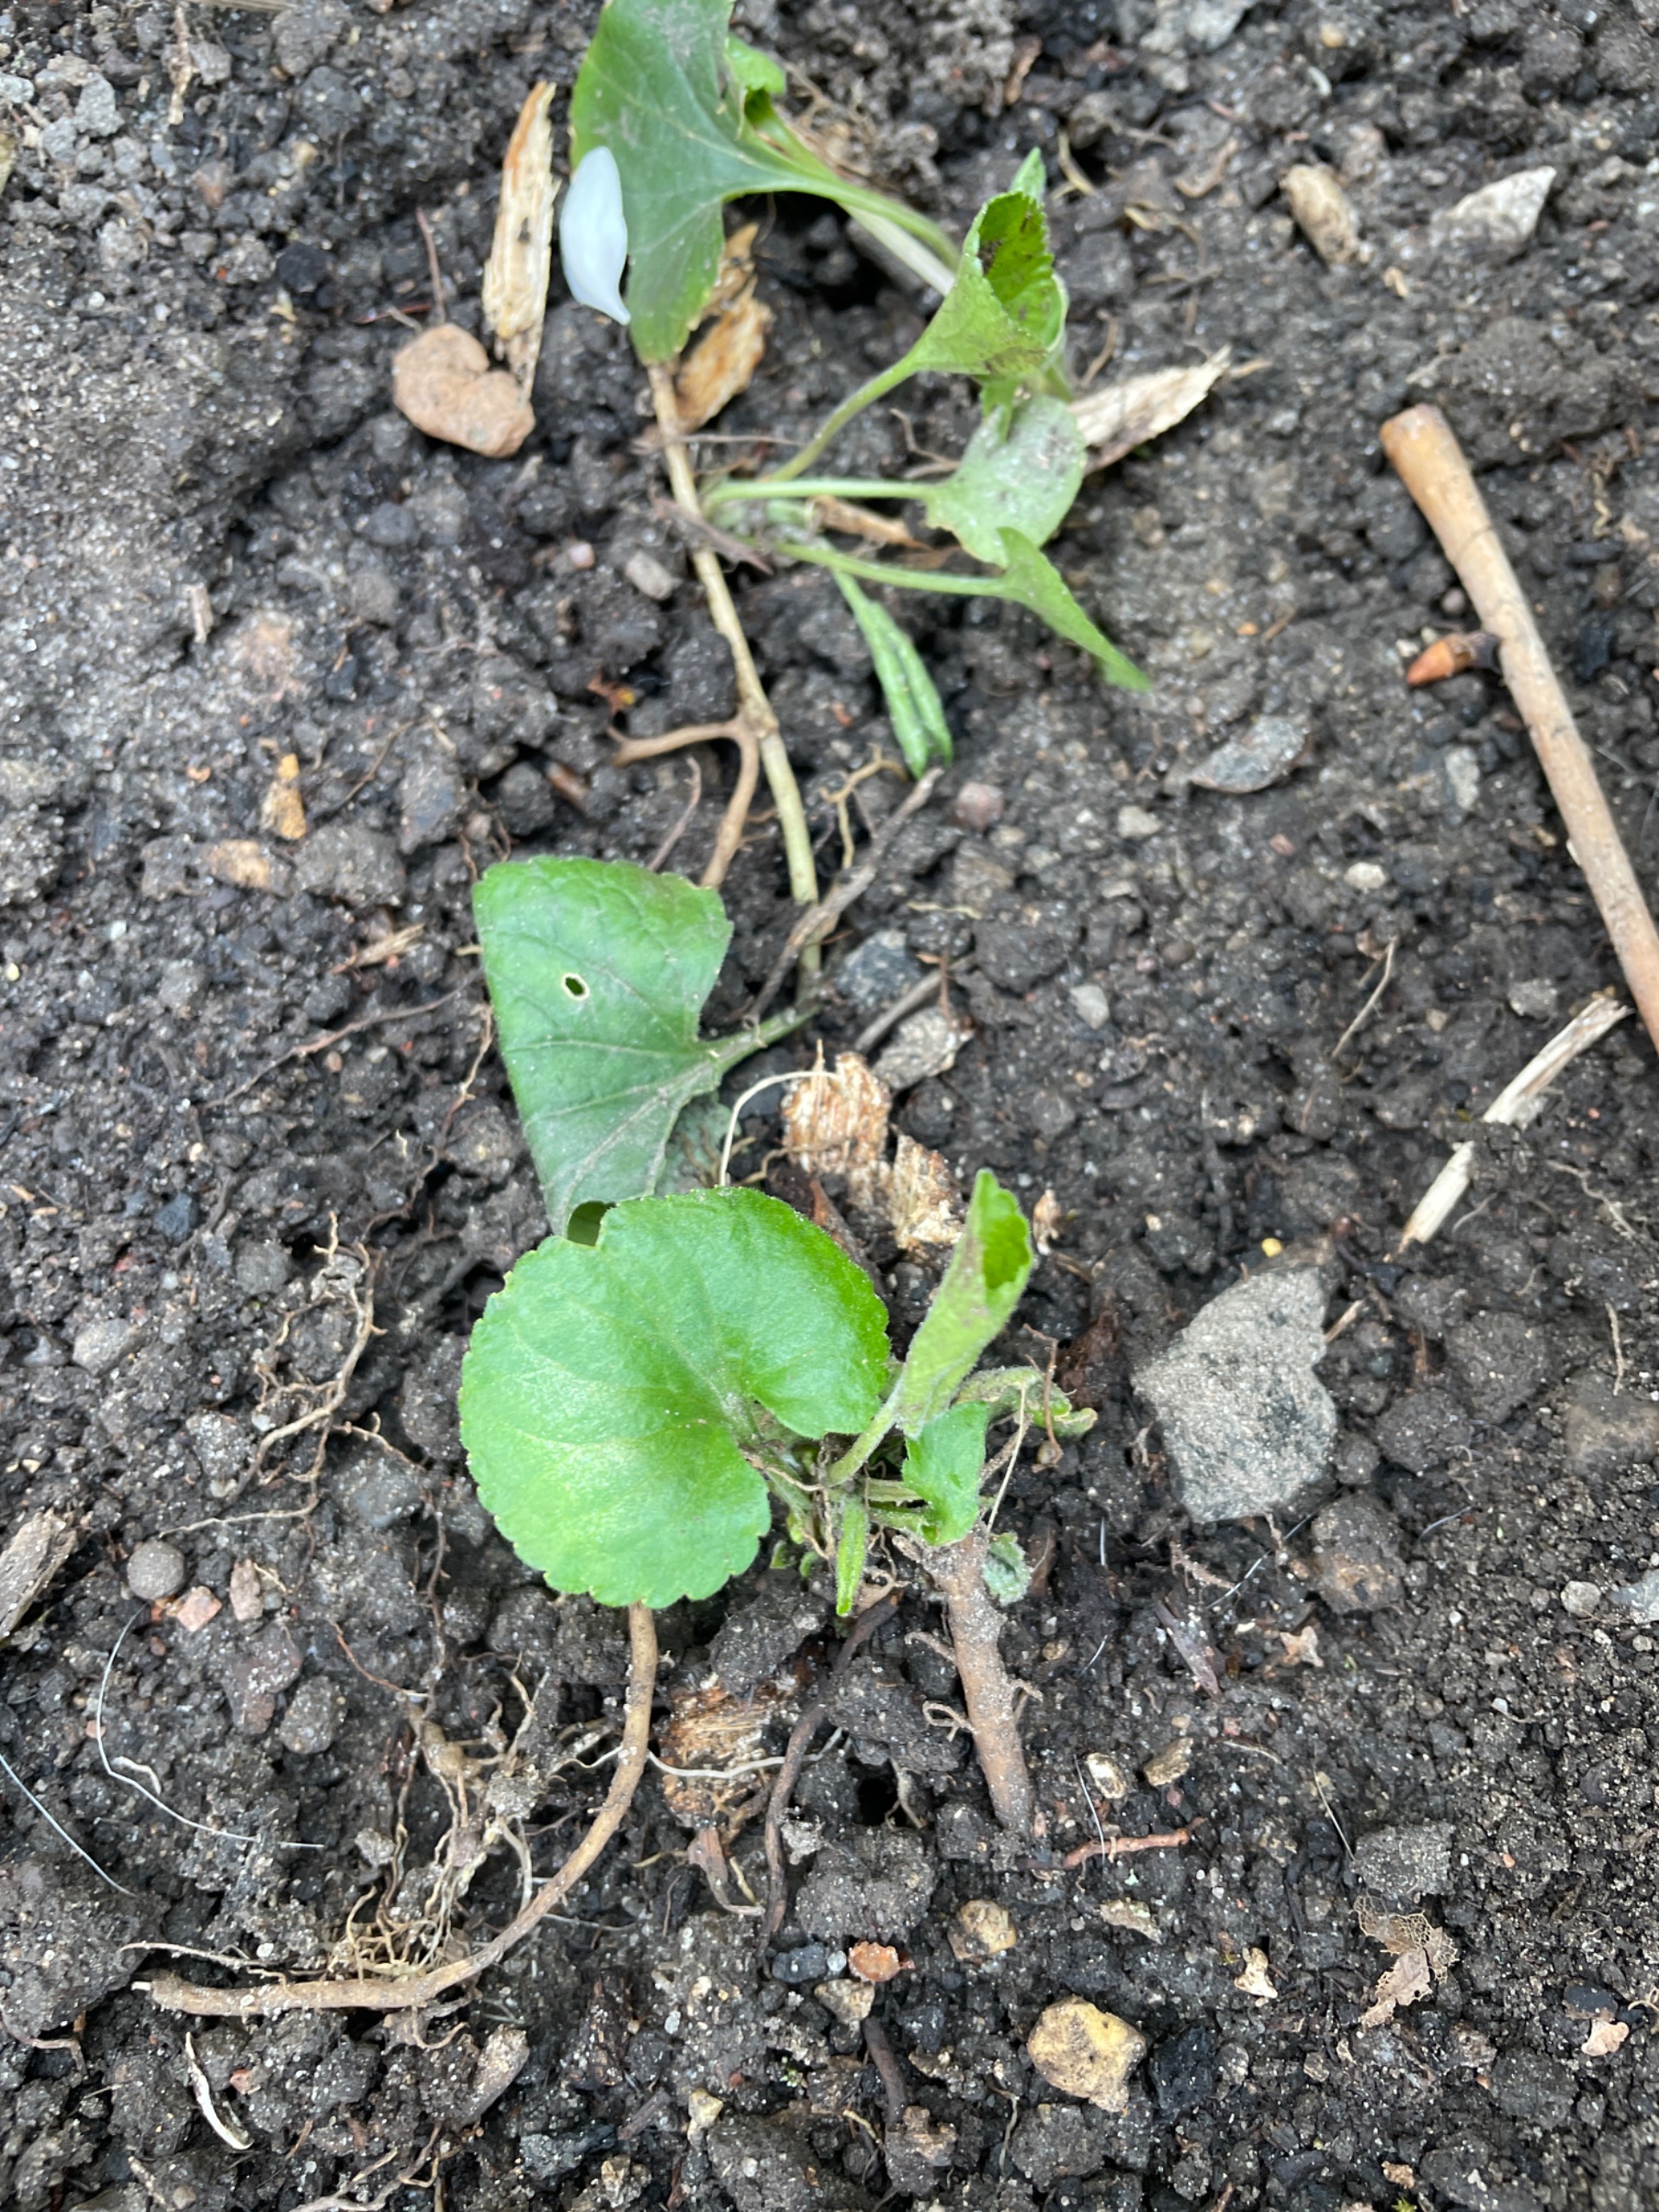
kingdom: Plantae
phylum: Tracheophyta
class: Magnoliopsida
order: Malpighiales
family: Violaceae
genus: Viola
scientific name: Viola odorata
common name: Marts-viol
